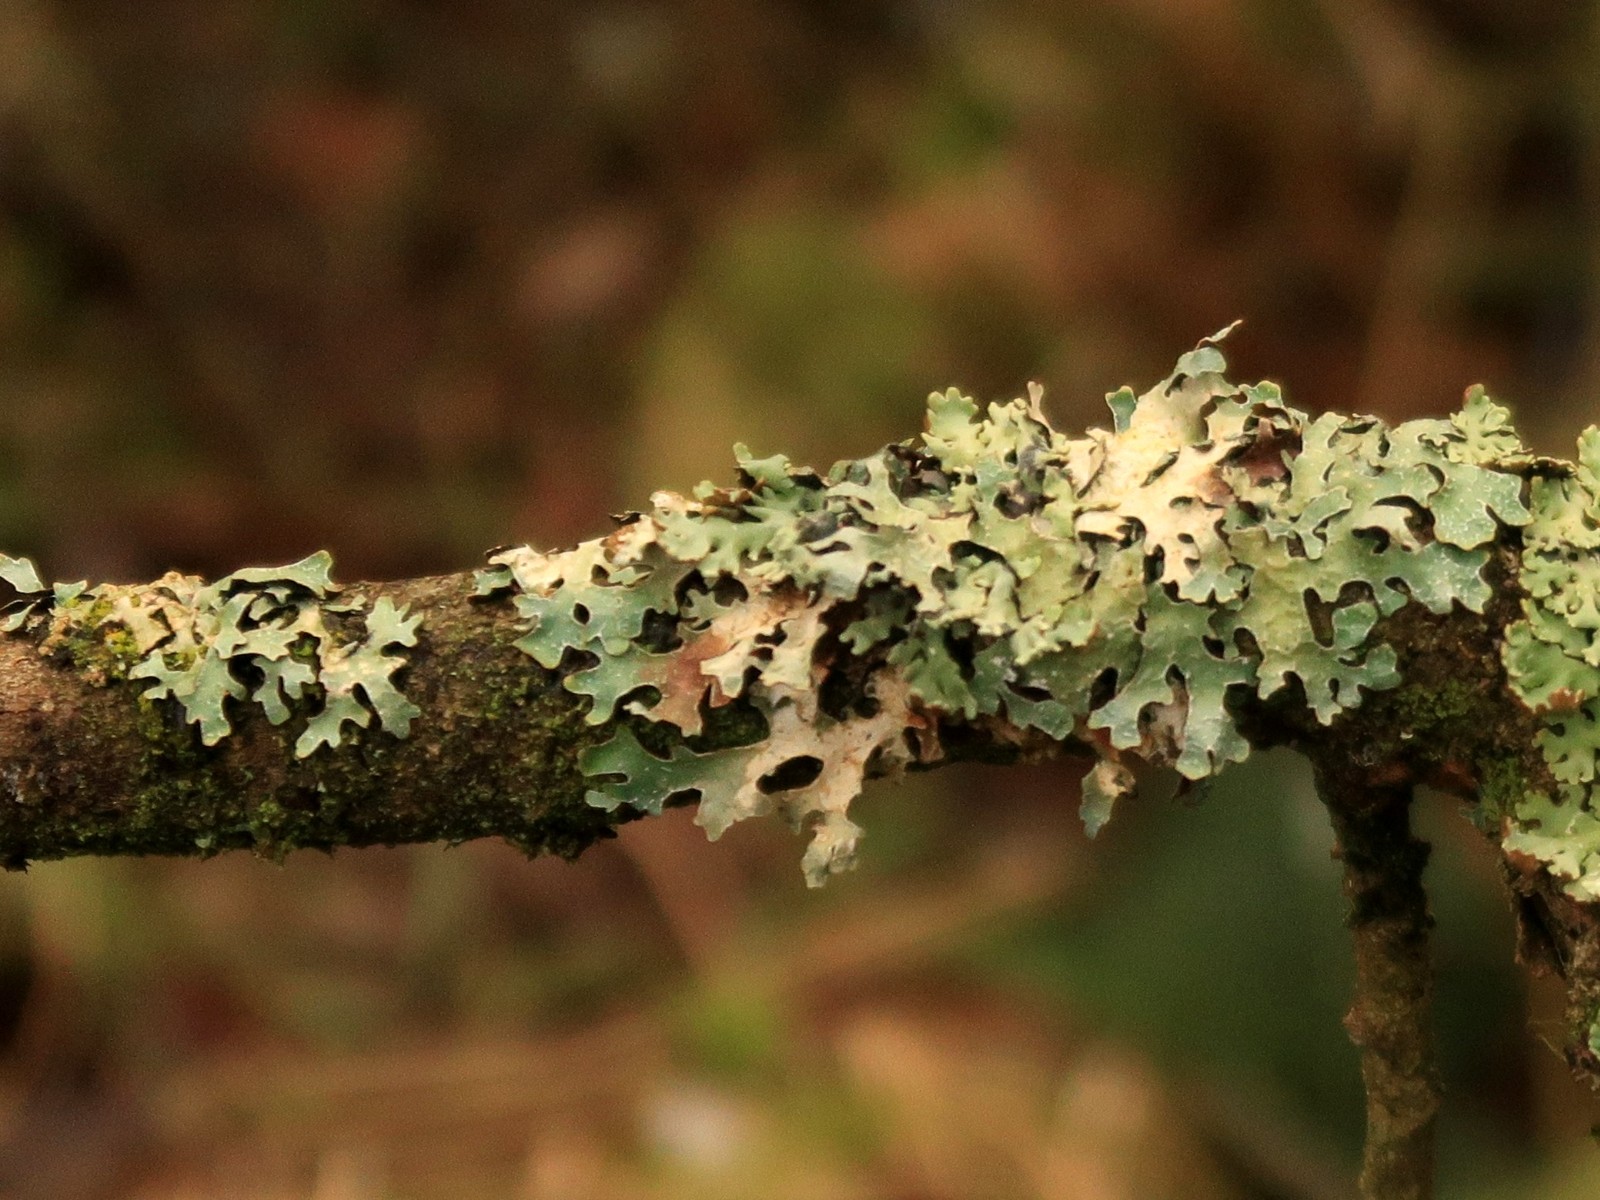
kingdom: Fungi
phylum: Ascomycota
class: Lecanoromycetes
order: Lecanorales
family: Parmeliaceae
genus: Parmelia
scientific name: Parmelia sulcata
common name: rynket skållav
